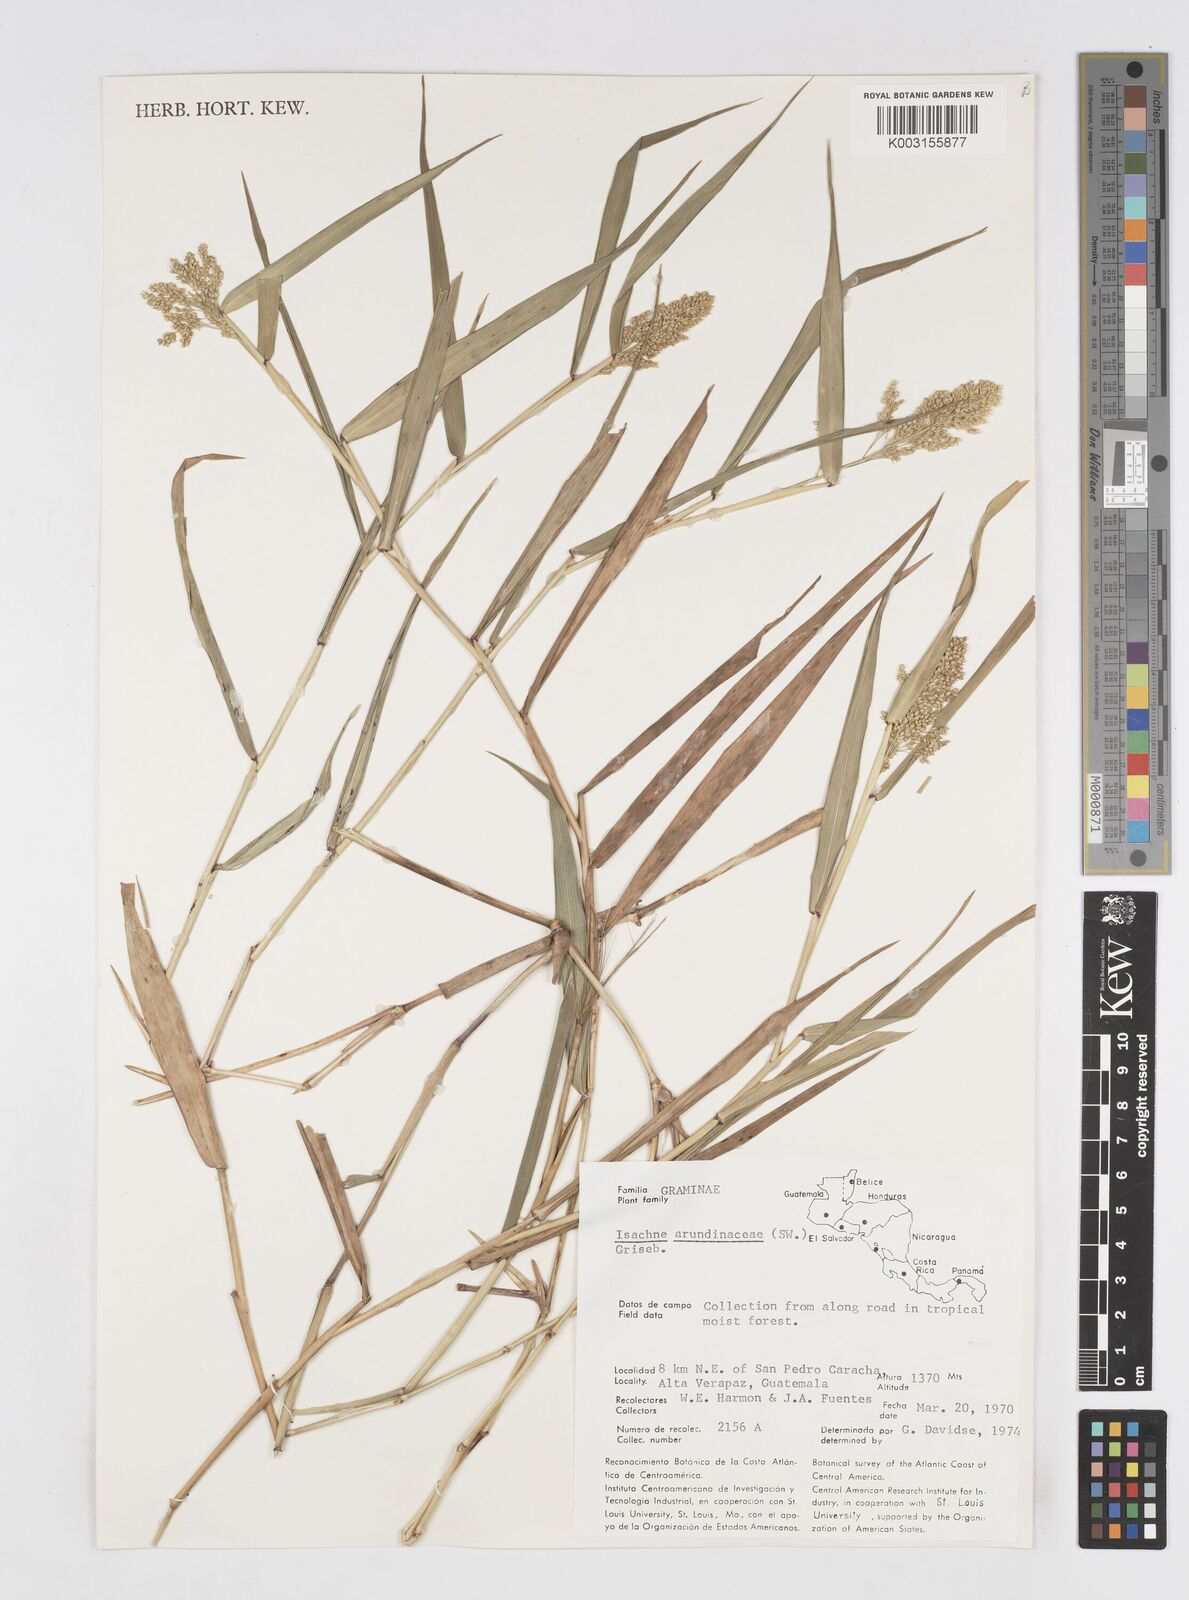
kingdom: Plantae
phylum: Tracheophyta
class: Liliopsida
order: Poales
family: Poaceae
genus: Isachne
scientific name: Isachne arundinacea
